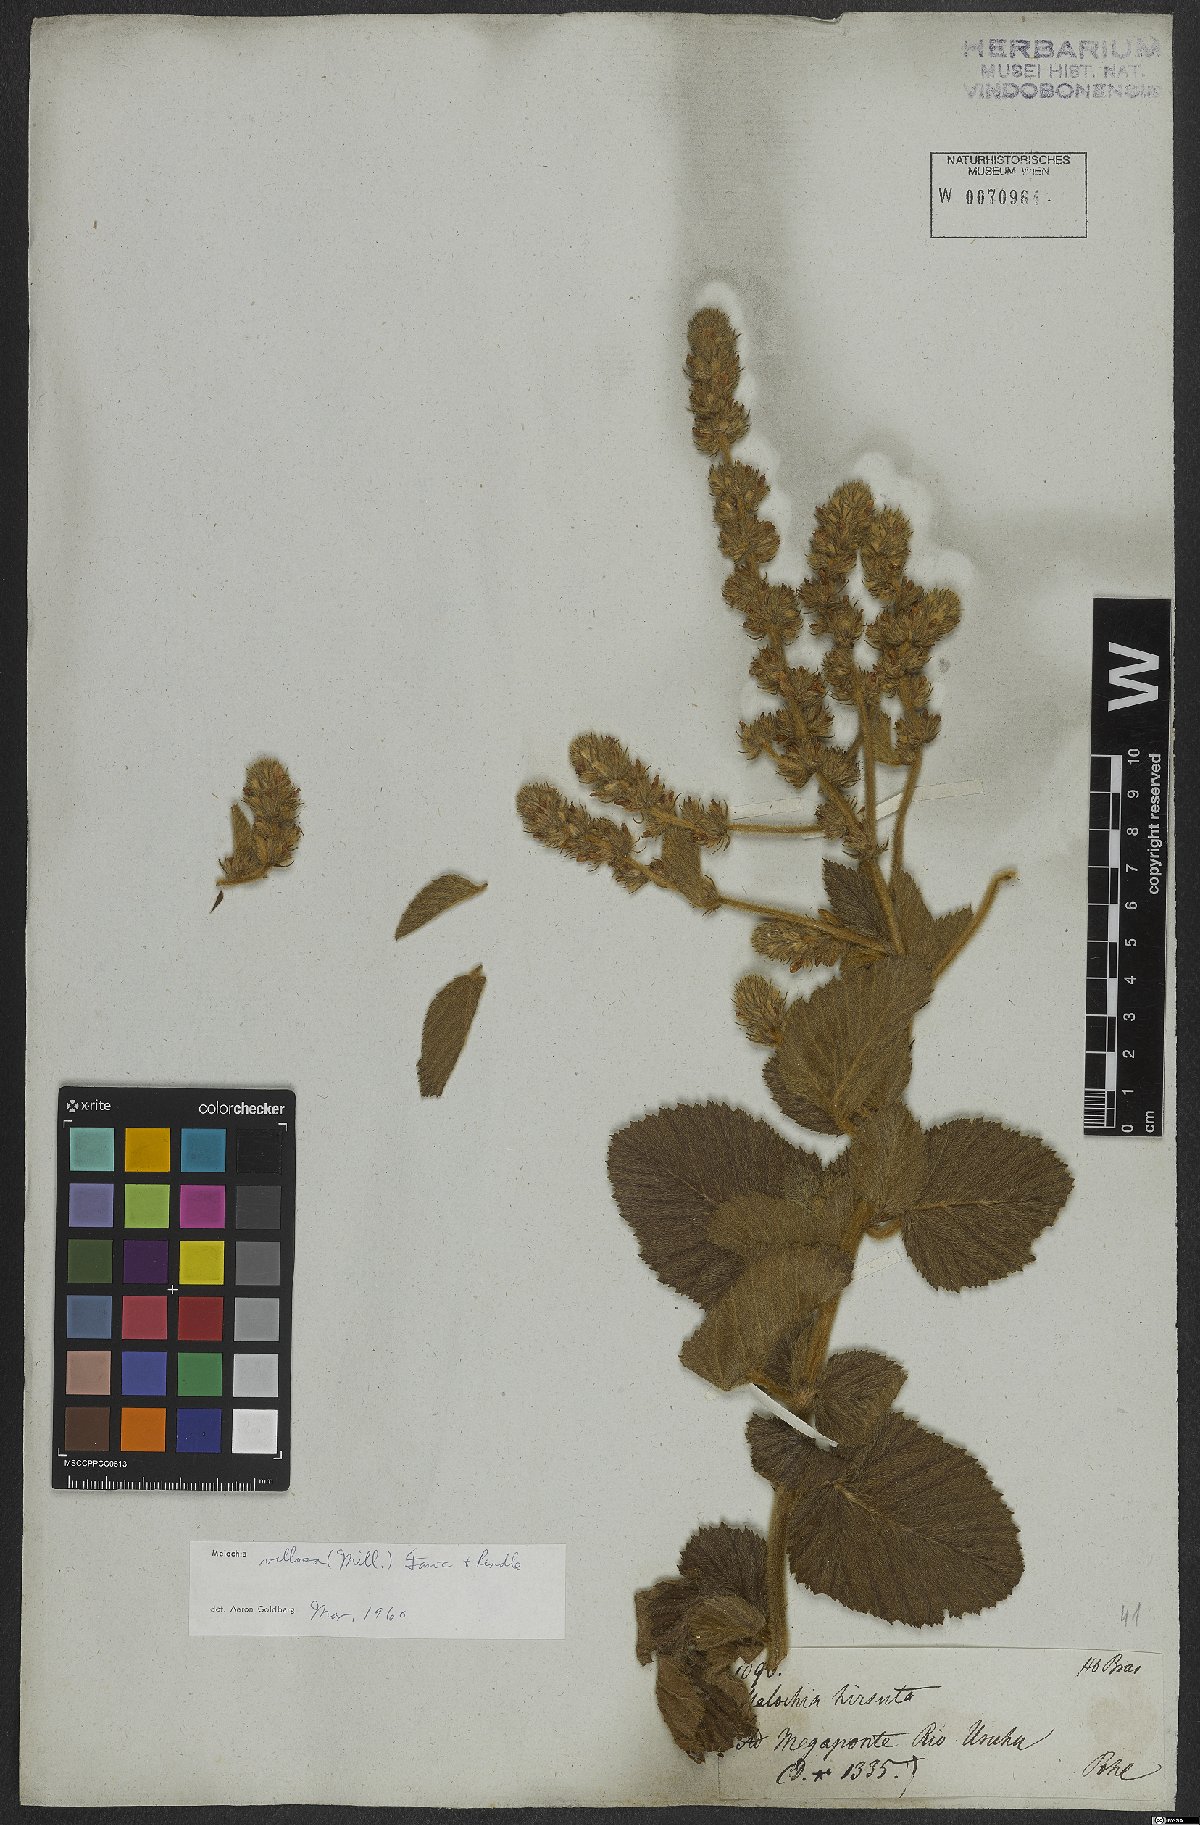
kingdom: Plantae
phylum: Tracheophyta
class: Magnoliopsida
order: Malvales
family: Malvaceae
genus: Melochia
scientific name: Melochia spicata
